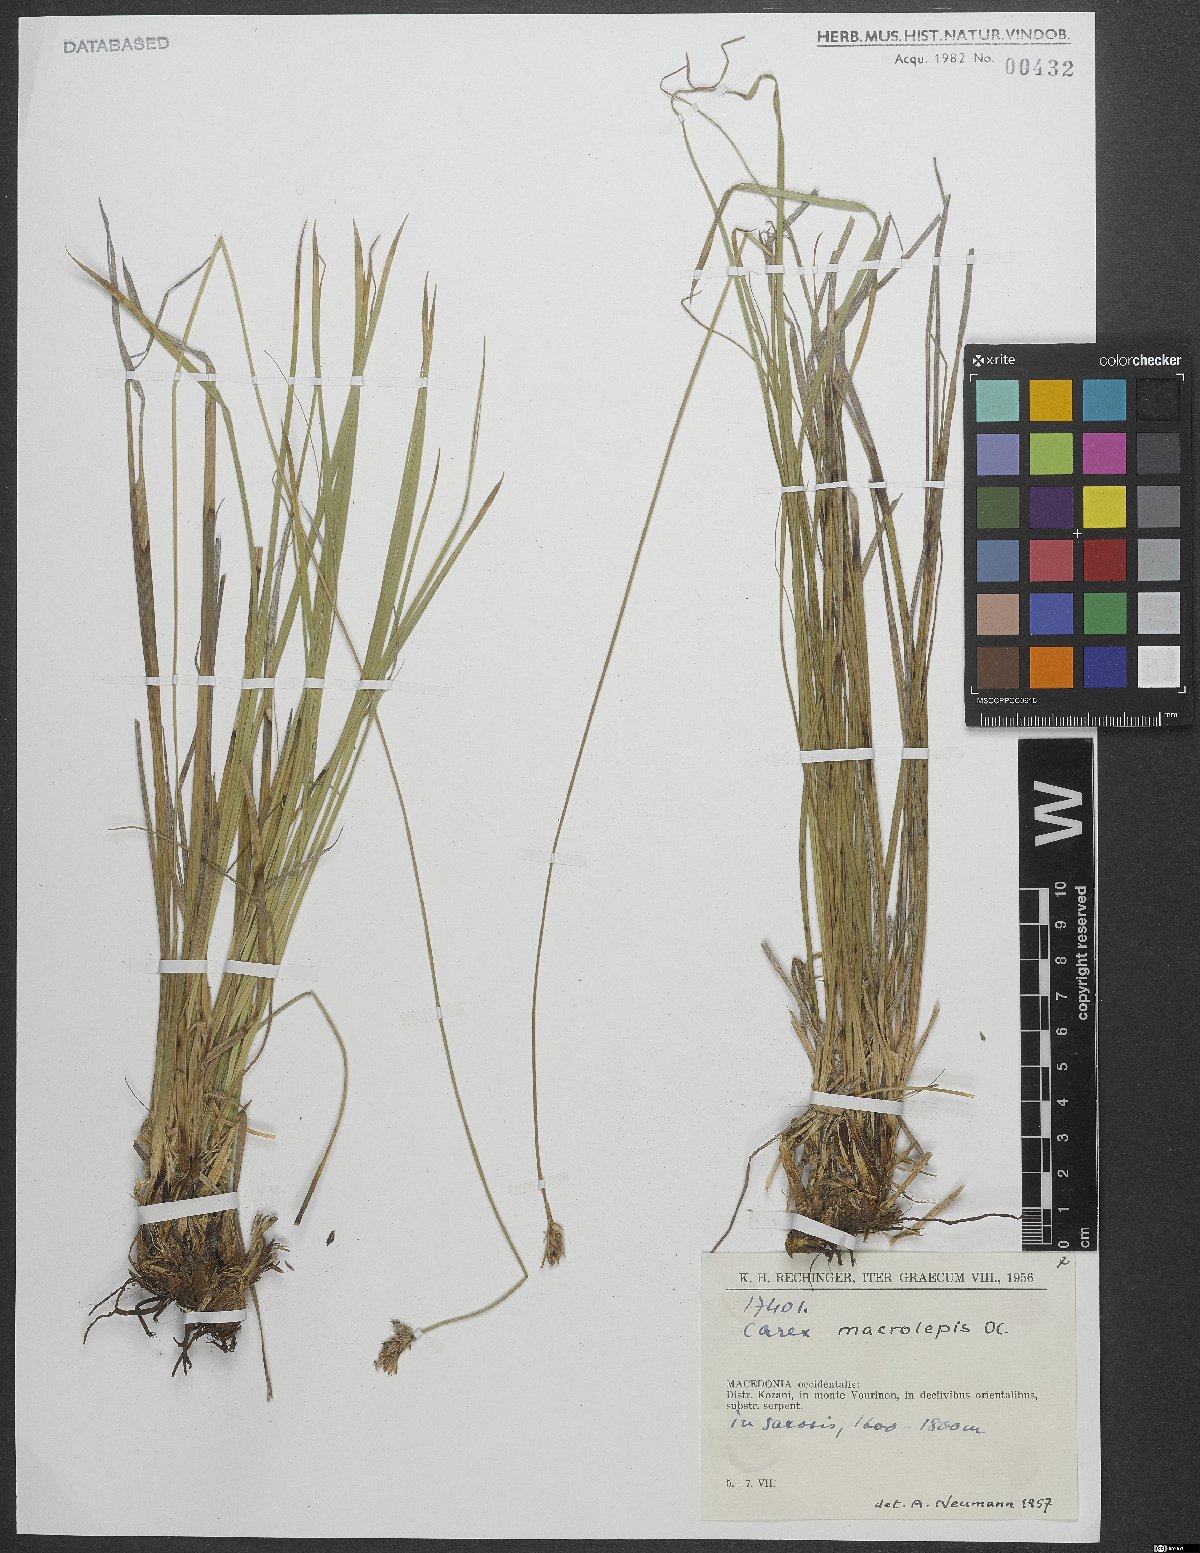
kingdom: Plantae
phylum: Tracheophyta
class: Liliopsida
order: Poales
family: Cyperaceae
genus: Carex
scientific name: Carex macrolepis
